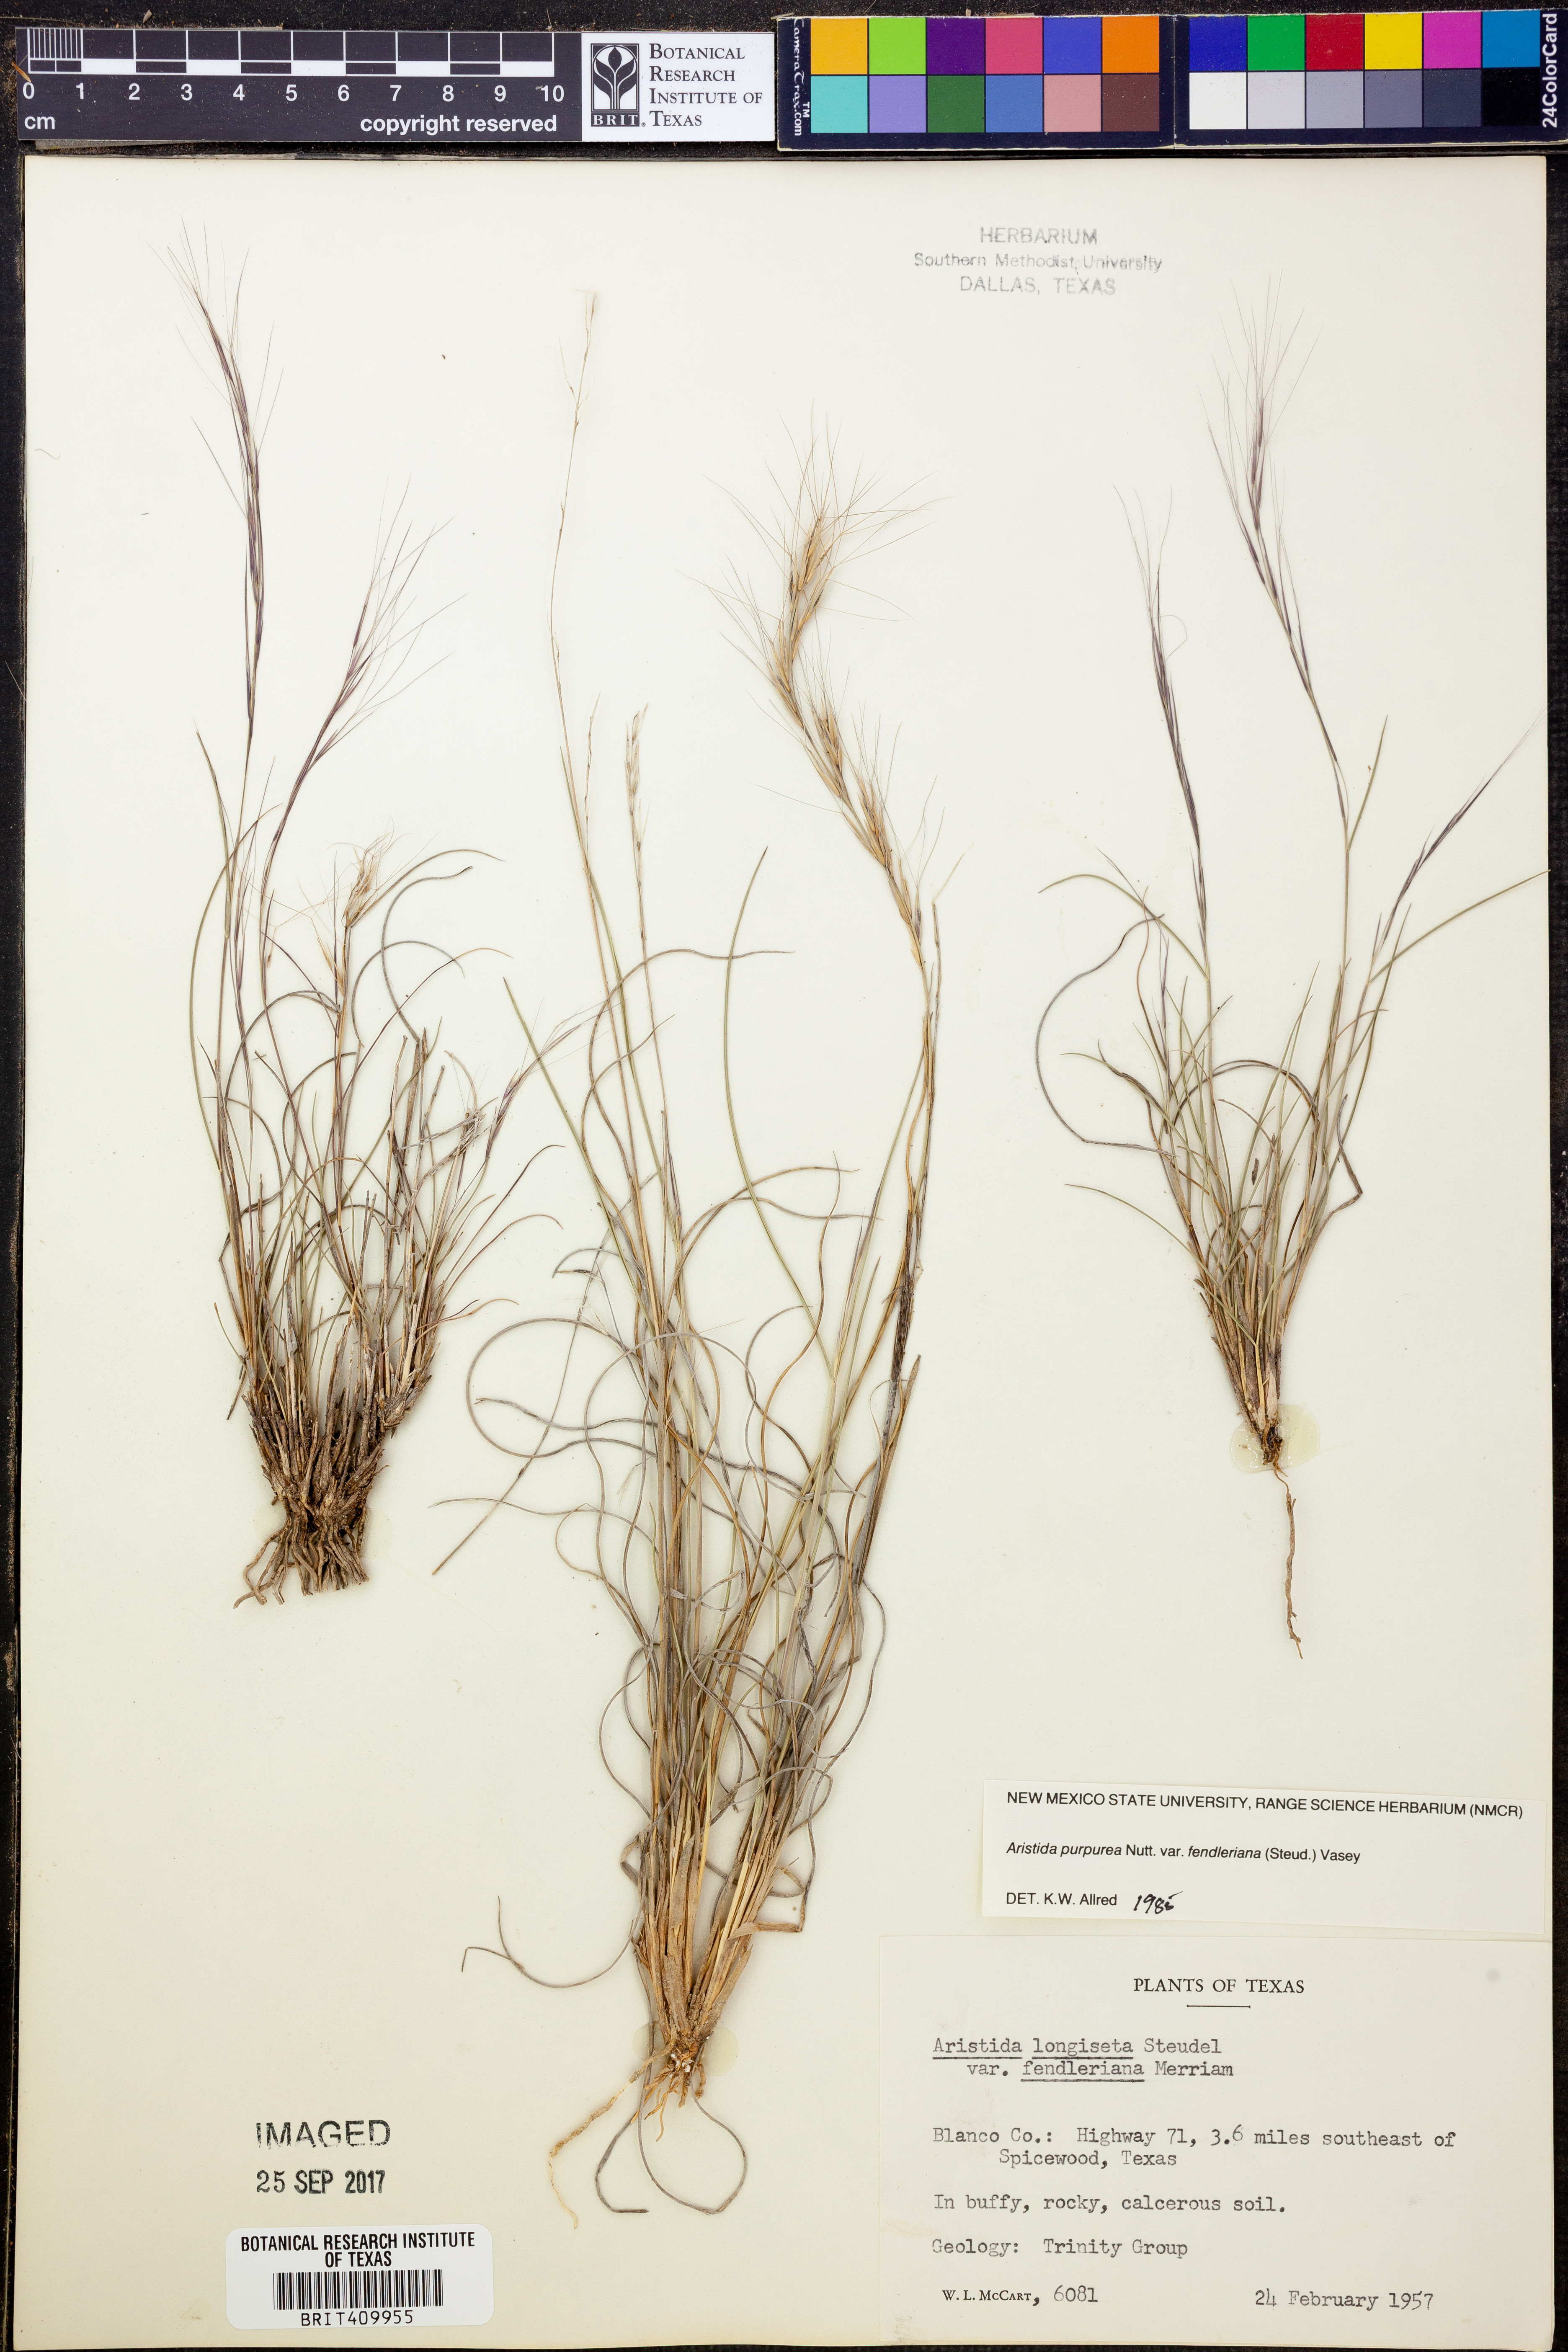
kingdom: Plantae
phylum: Tracheophyta
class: Liliopsida
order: Poales
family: Poaceae
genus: Aristida
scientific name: Aristida fendleriana
